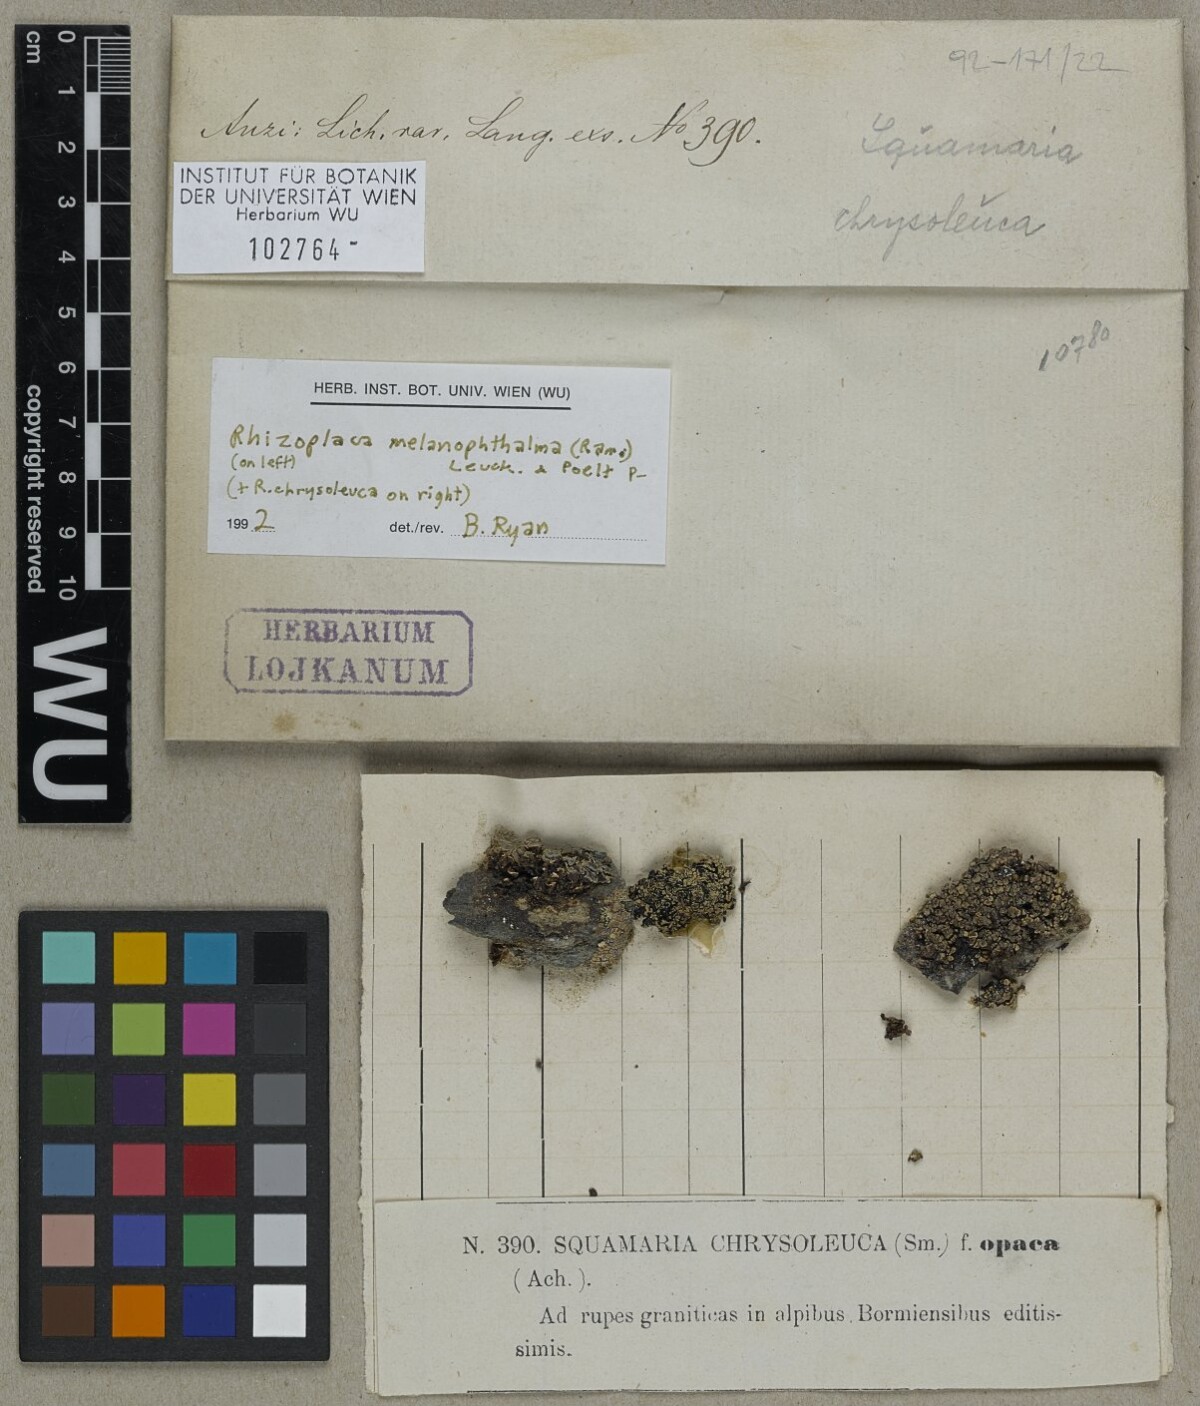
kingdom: Fungi
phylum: Ascomycota
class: Lecanoromycetes
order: Lecanorales
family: Lecanoraceae
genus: Rhizoplaca
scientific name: Rhizoplaca melanophthalma
